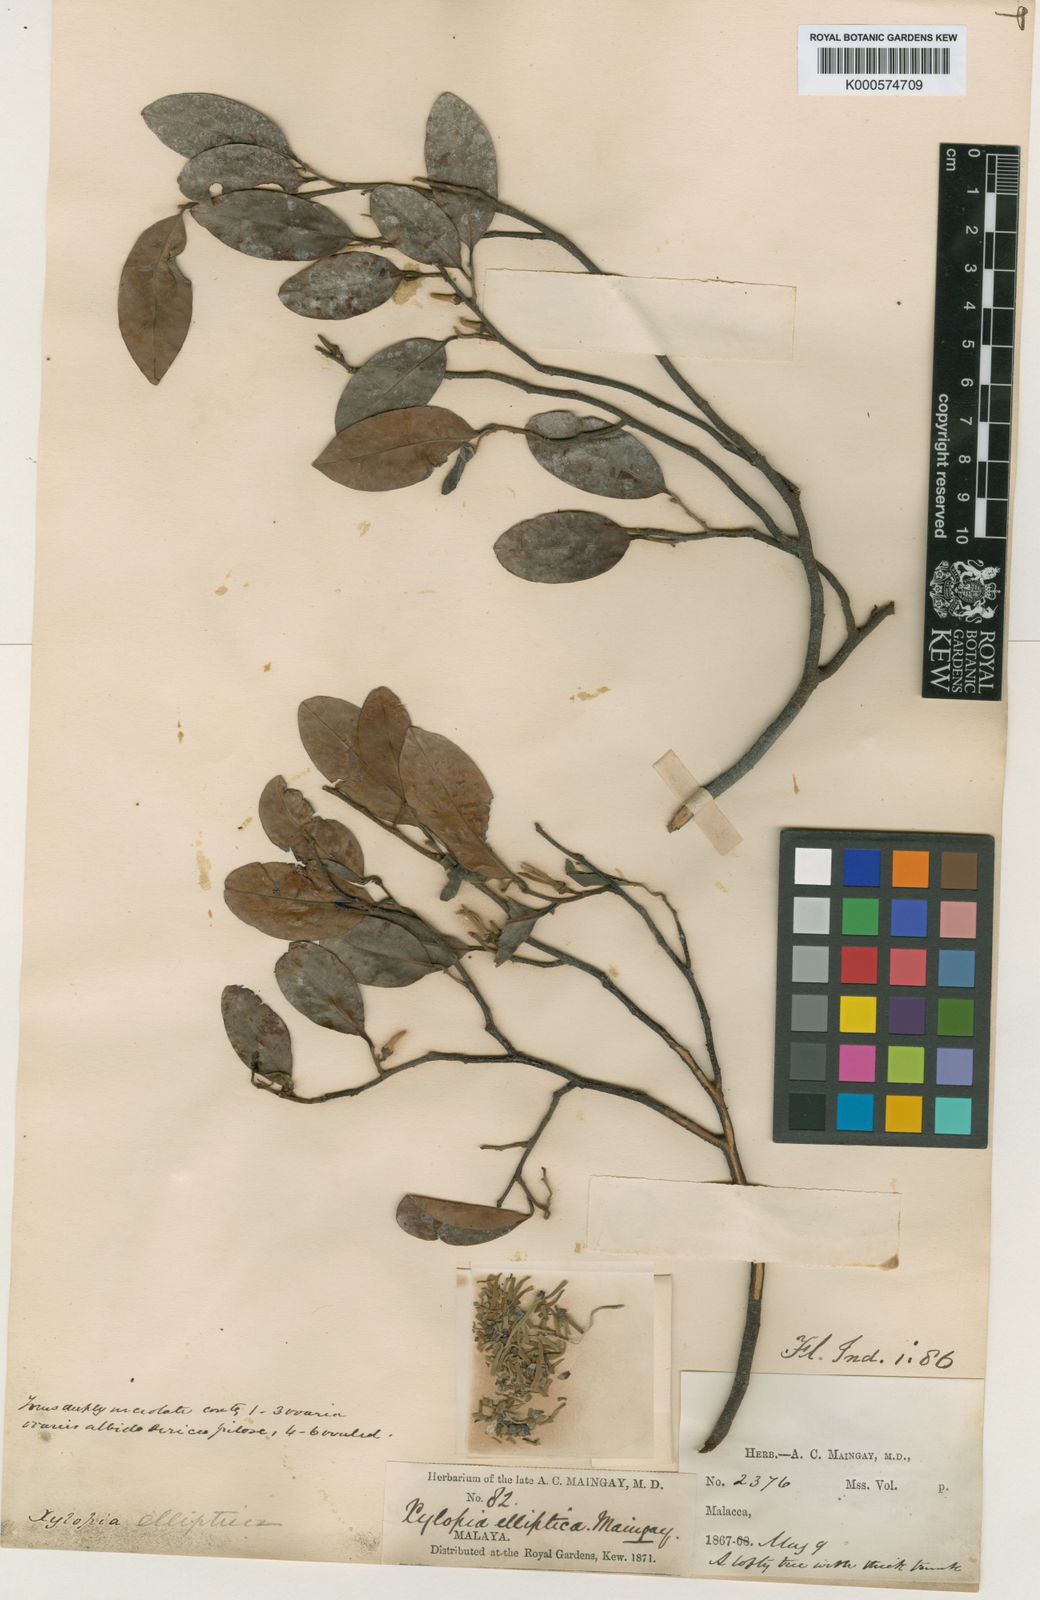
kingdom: Plantae
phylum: Tracheophyta
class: Magnoliopsida
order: Magnoliales
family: Annonaceae
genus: Xylopia
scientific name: Xylopia
